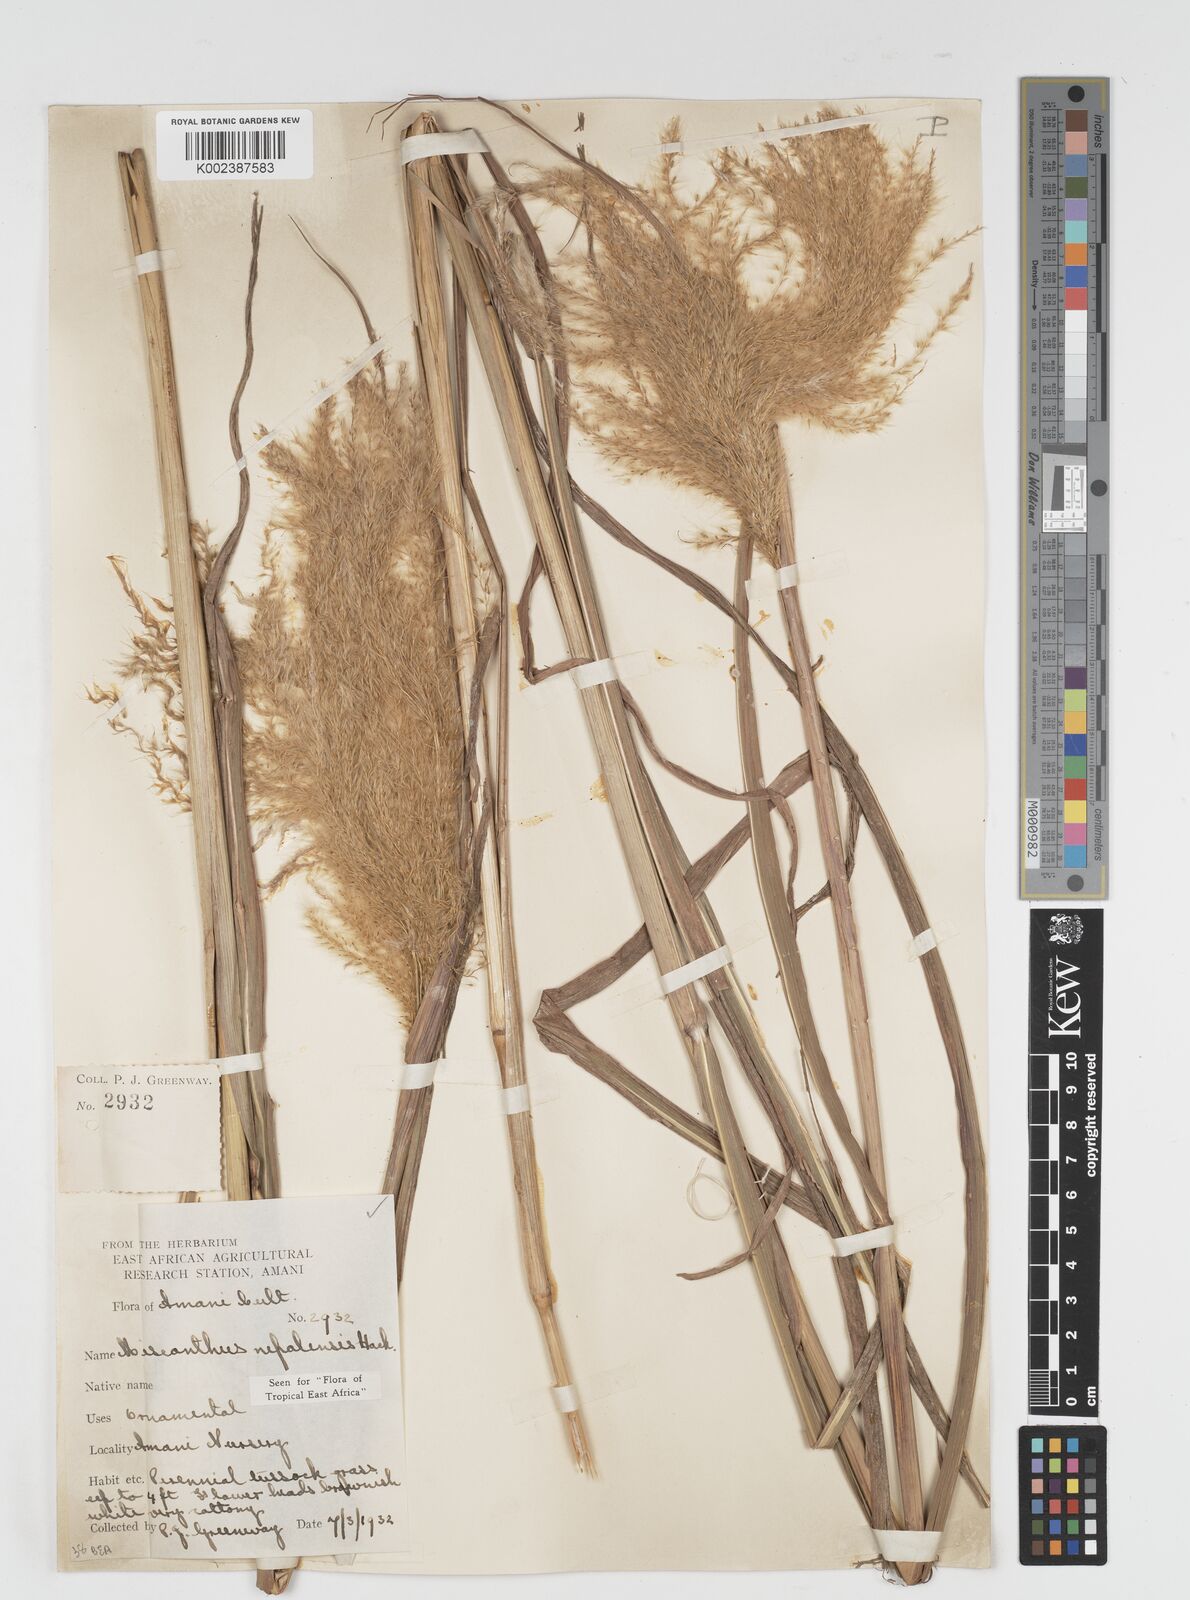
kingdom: Plantae
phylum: Tracheophyta
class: Liliopsida
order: Poales
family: Poaceae
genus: Miscanthus
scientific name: Miscanthus nepalensis
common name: Nepal silver grass
